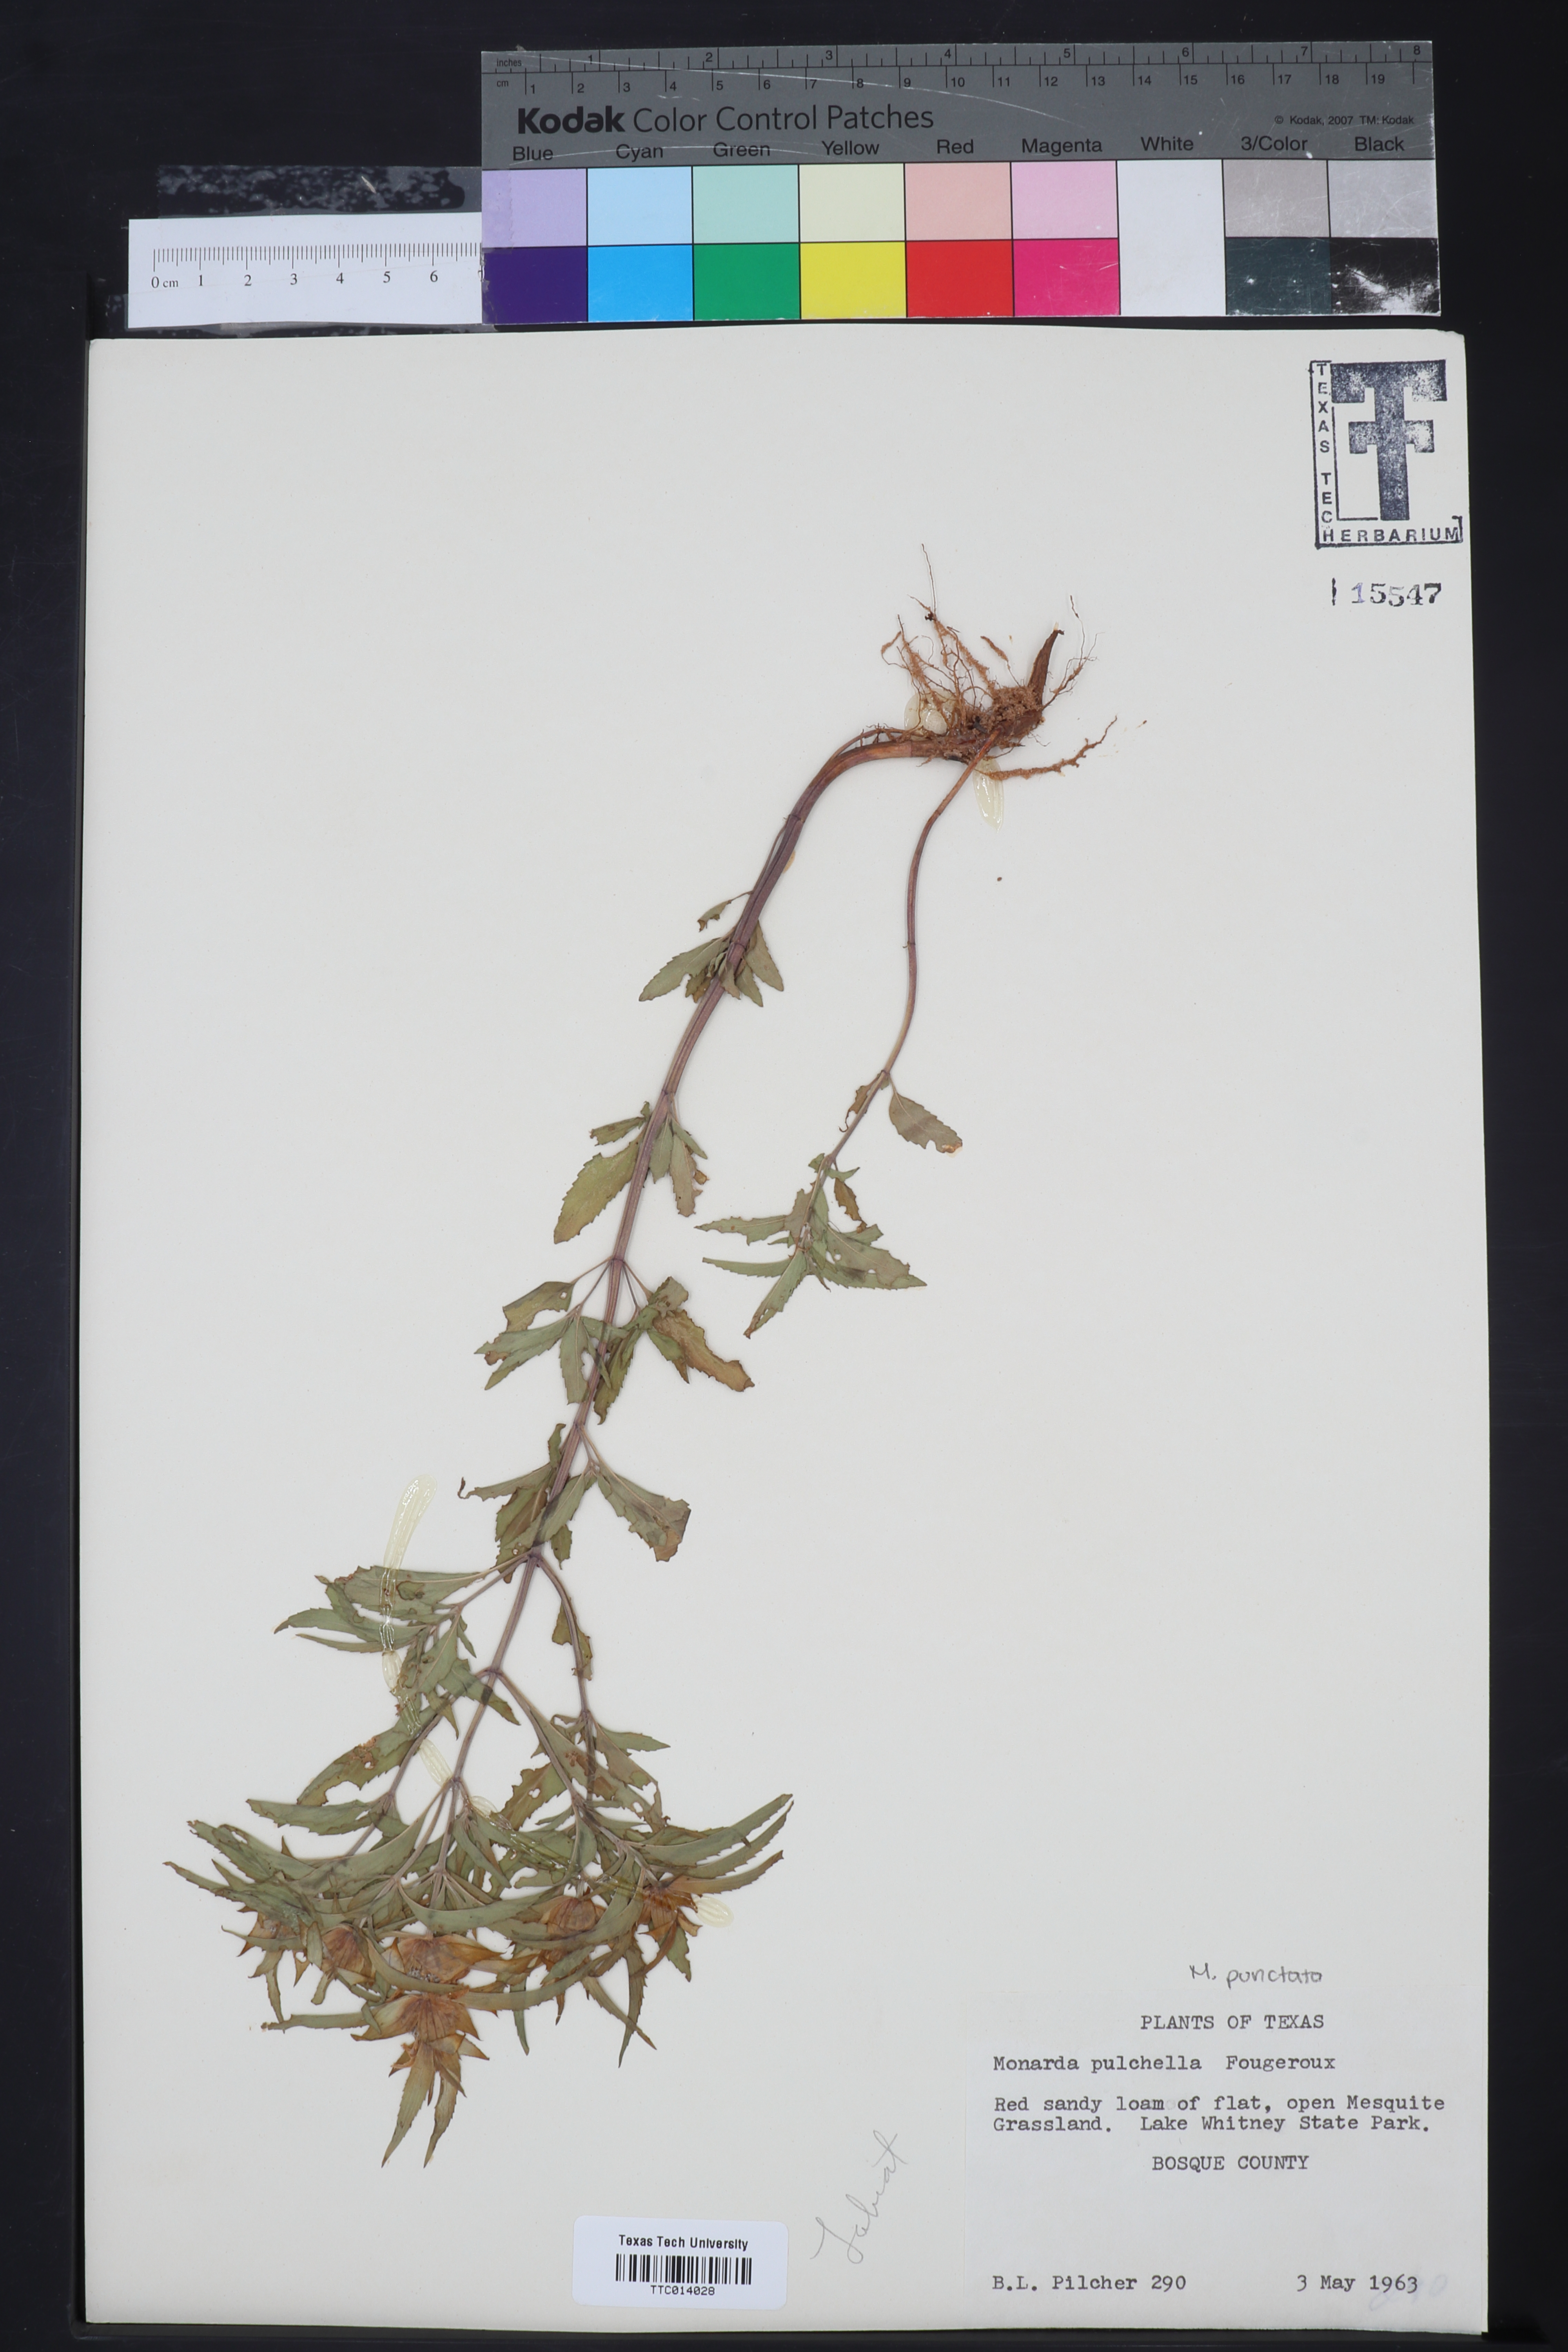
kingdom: Plantae
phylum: Tracheophyta
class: Magnoliopsida
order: Lamiales
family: Lamiaceae
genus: Monarda
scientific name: Monarda
